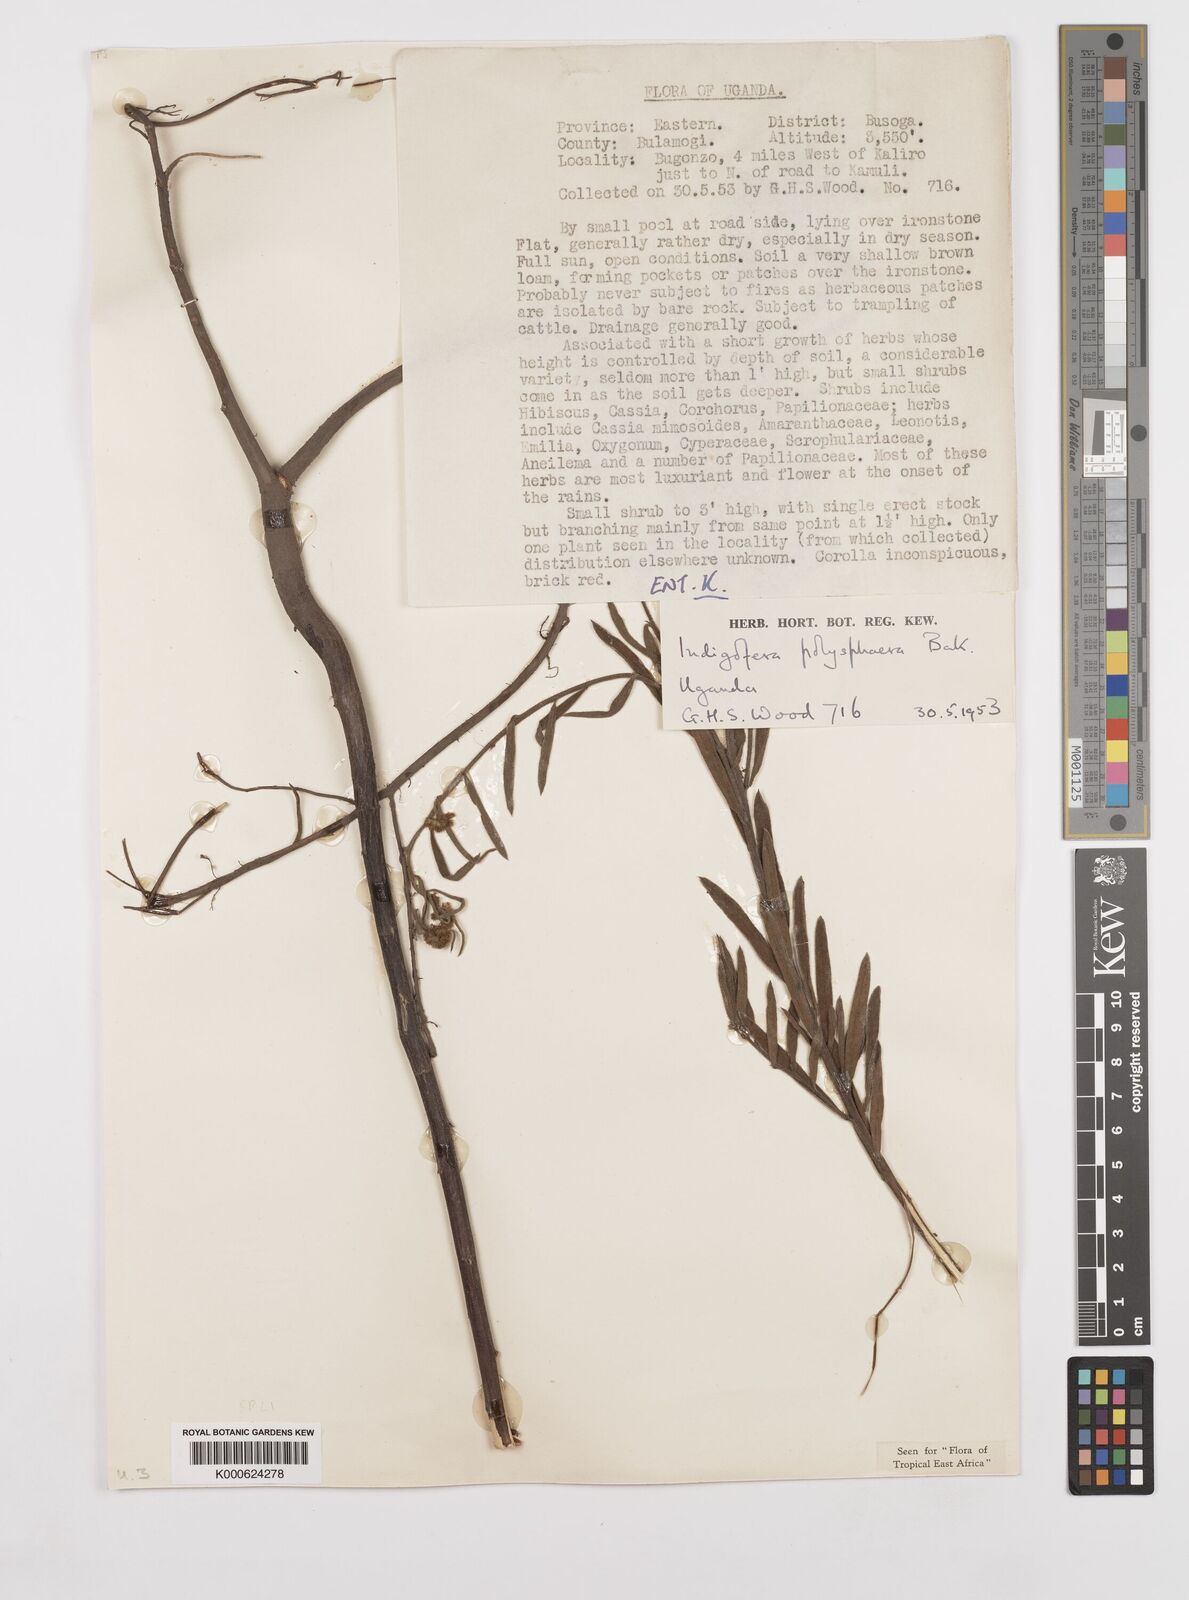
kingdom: Plantae
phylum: Tracheophyta
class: Magnoliopsida
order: Fabales
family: Fabaceae
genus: Indigofera
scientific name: Indigofera polysphaera
